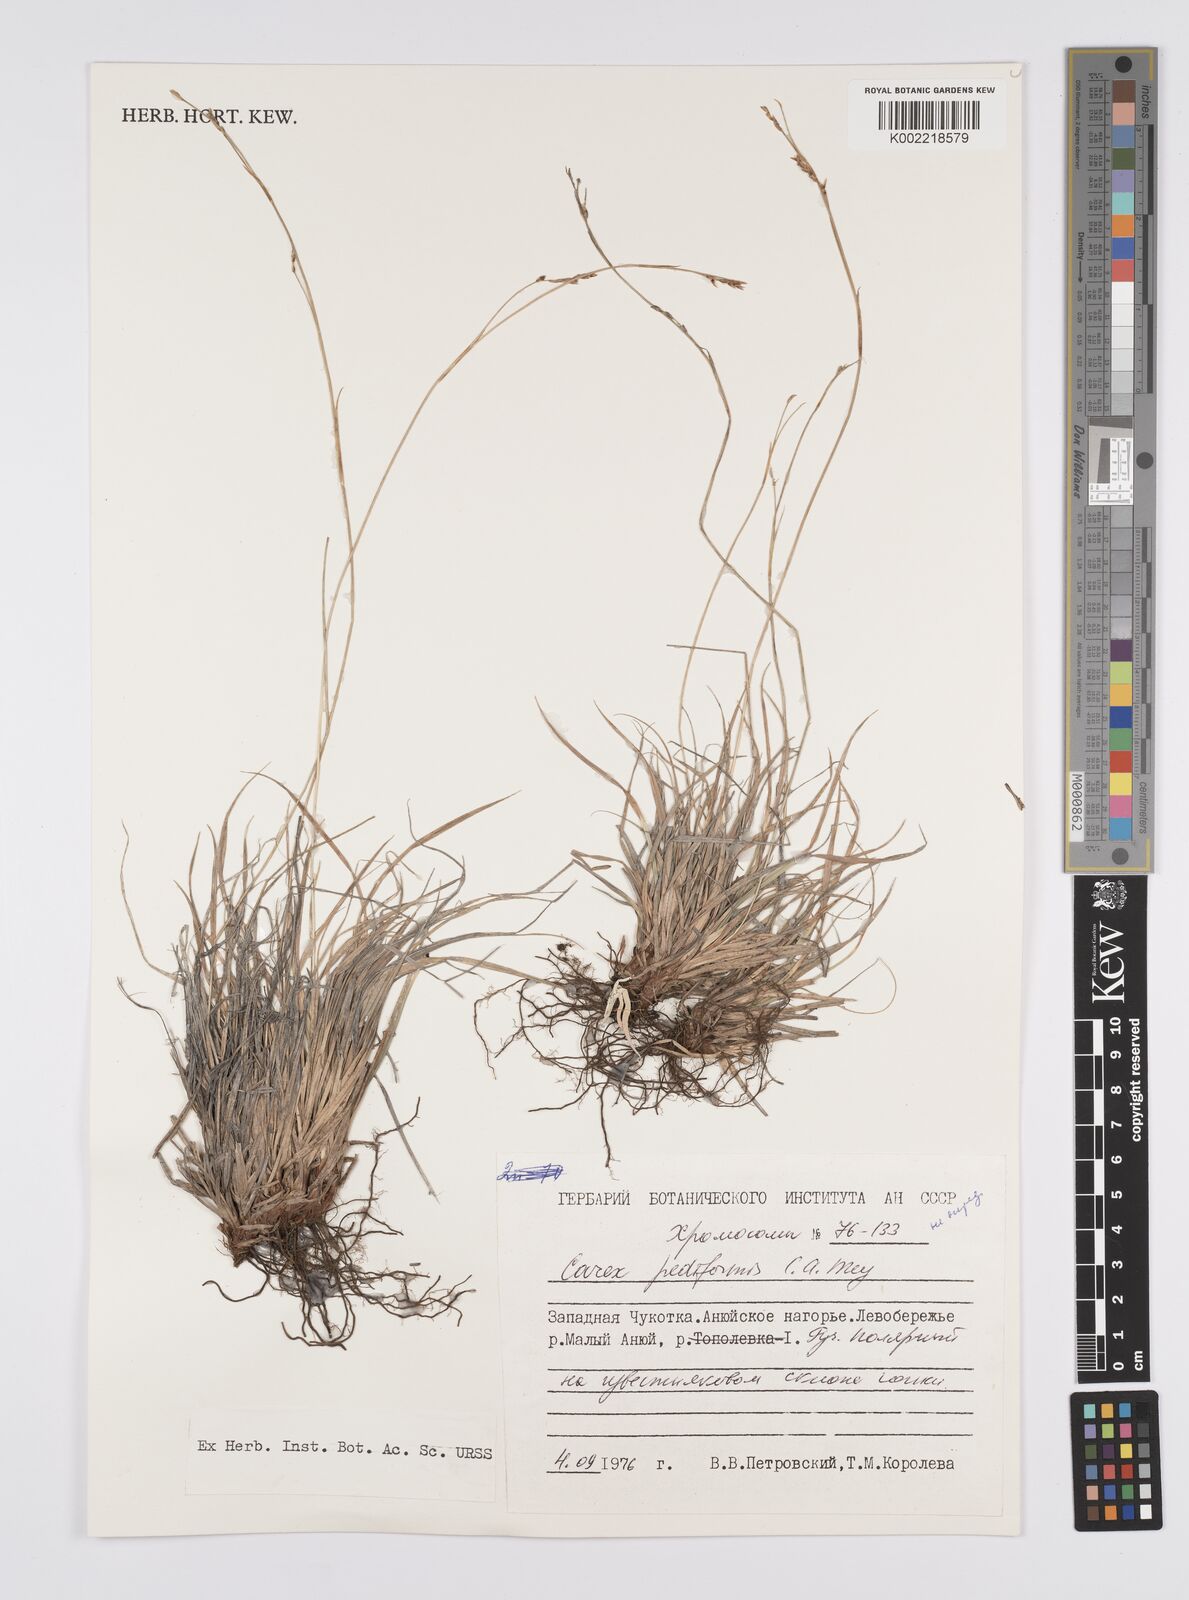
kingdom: Plantae
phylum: Tracheophyta
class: Liliopsida
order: Poales
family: Cyperaceae
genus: Carex
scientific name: Carex pediformis
